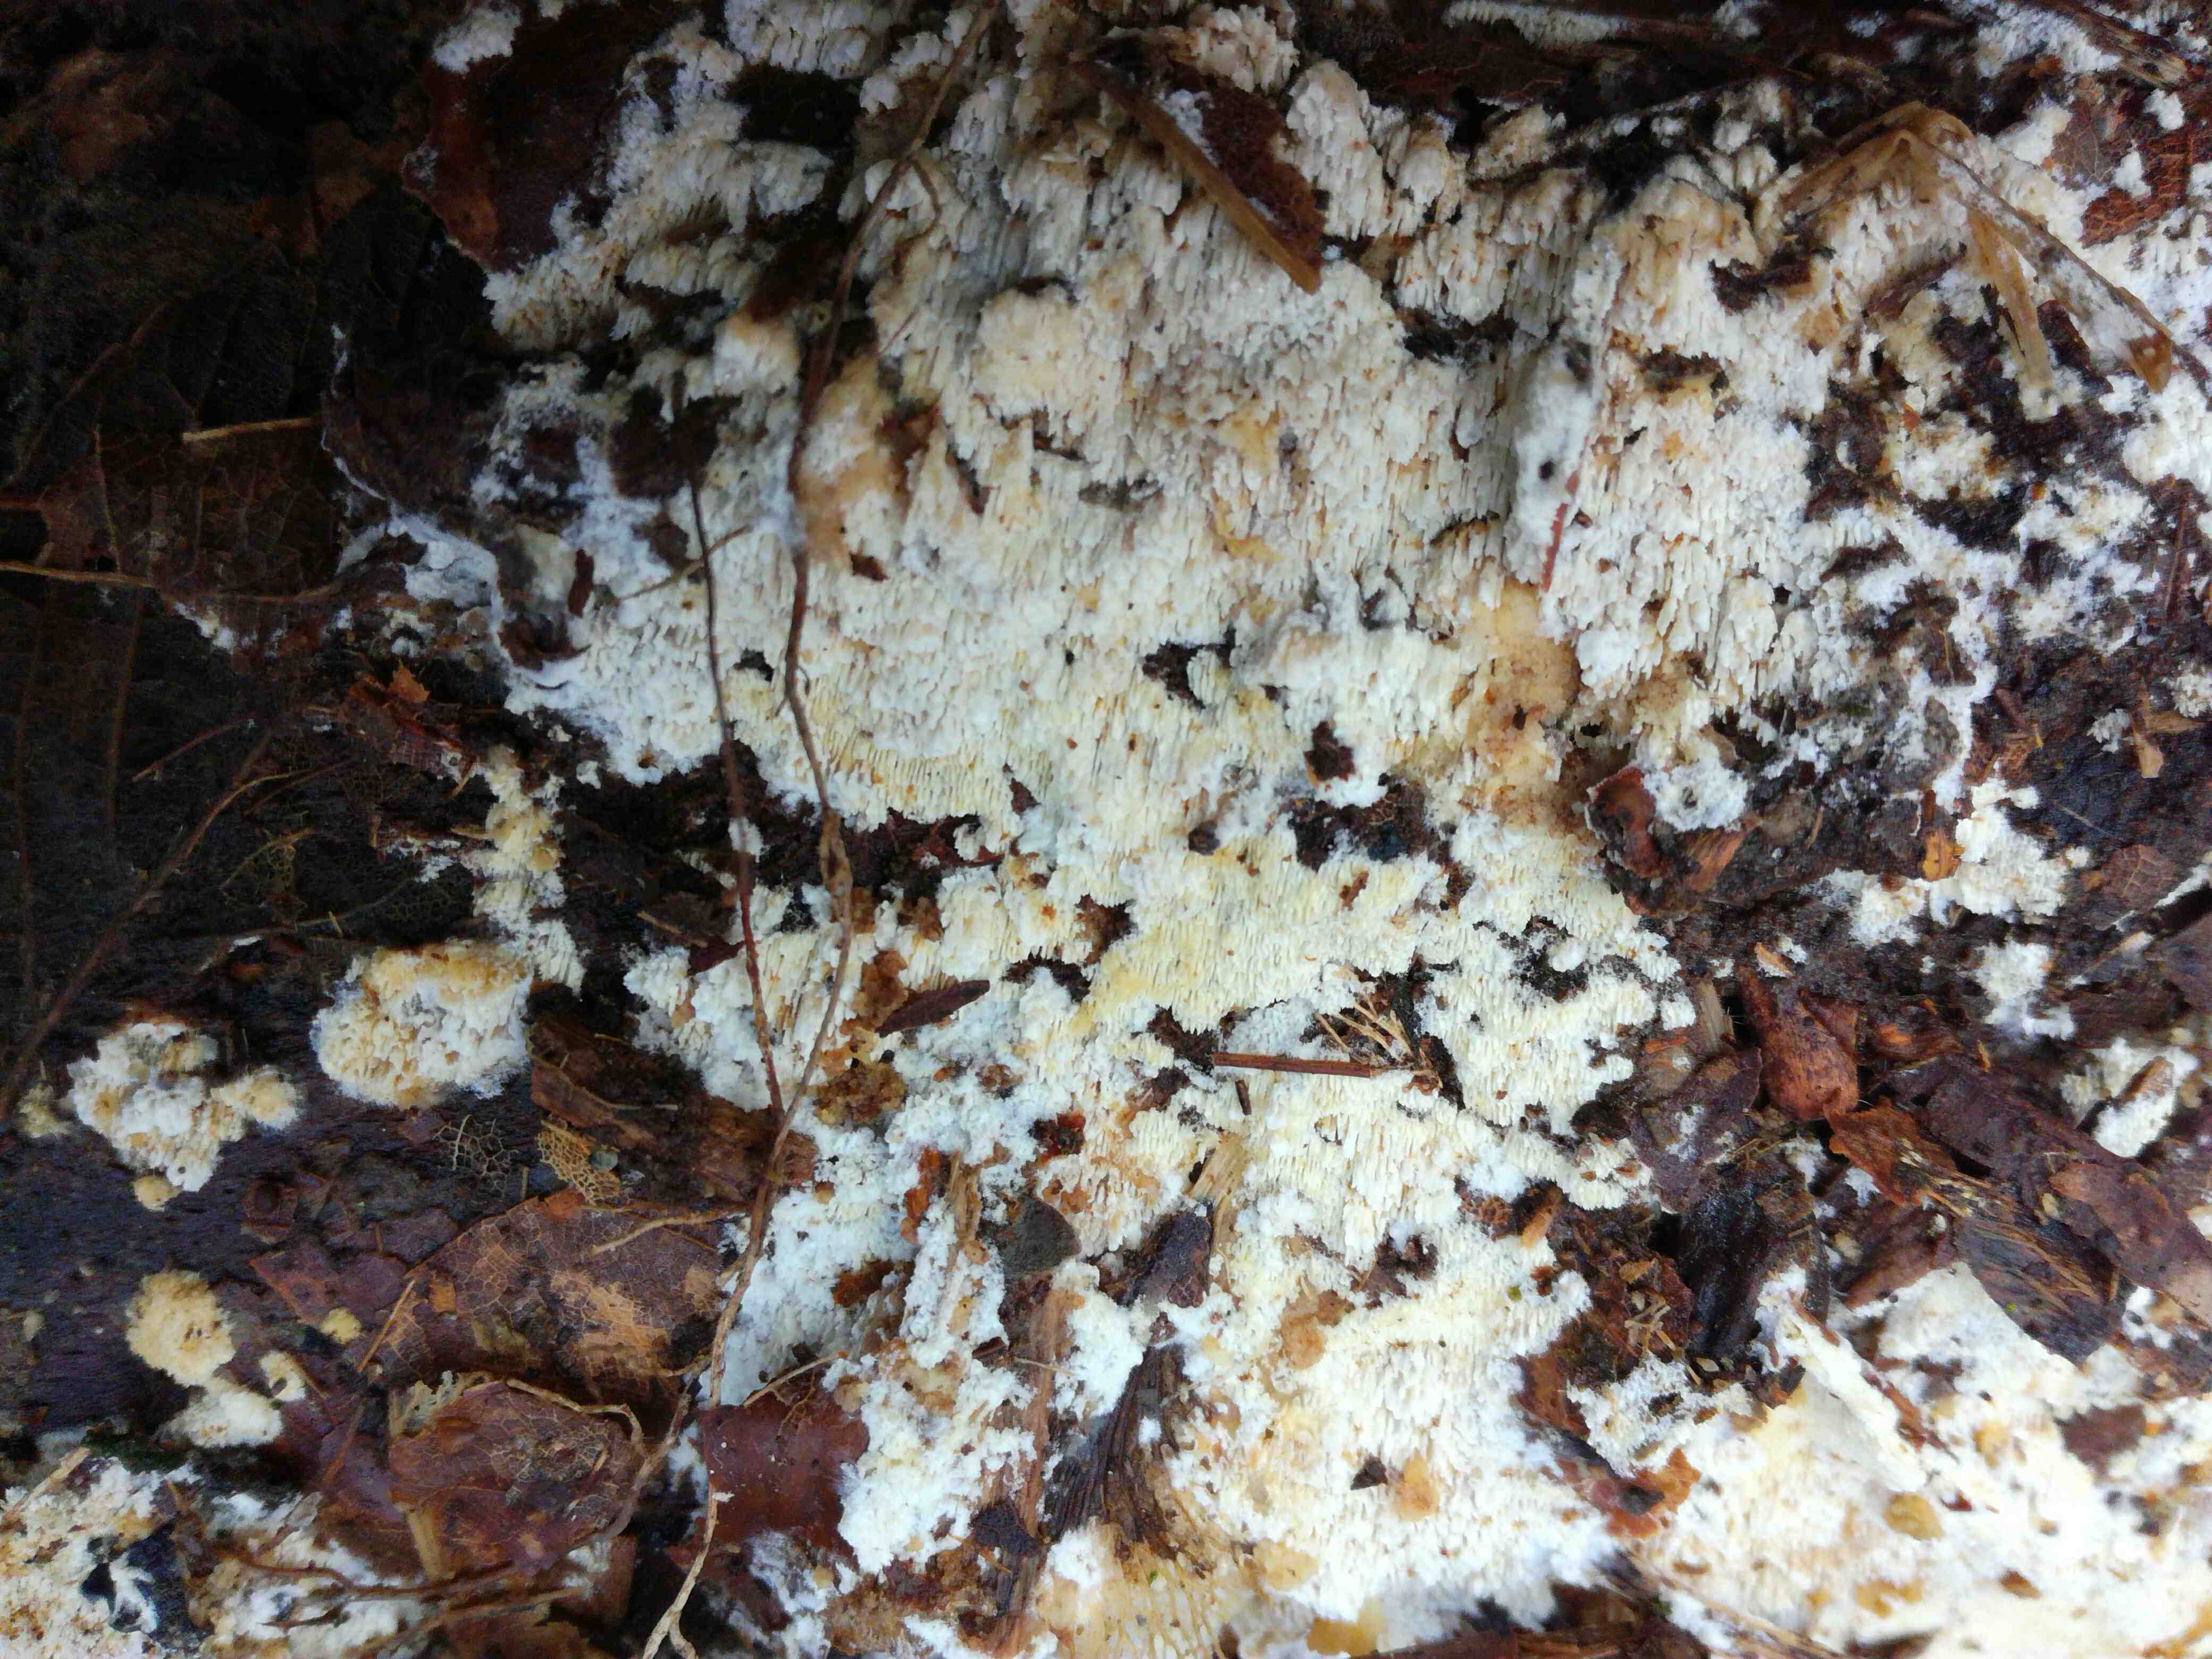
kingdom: Fungi
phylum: Basidiomycota
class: Agaricomycetes
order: Hymenochaetales
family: Schizoporaceae
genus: Schizopora
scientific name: Schizopora paradoxa
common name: hvid tandsvamp
